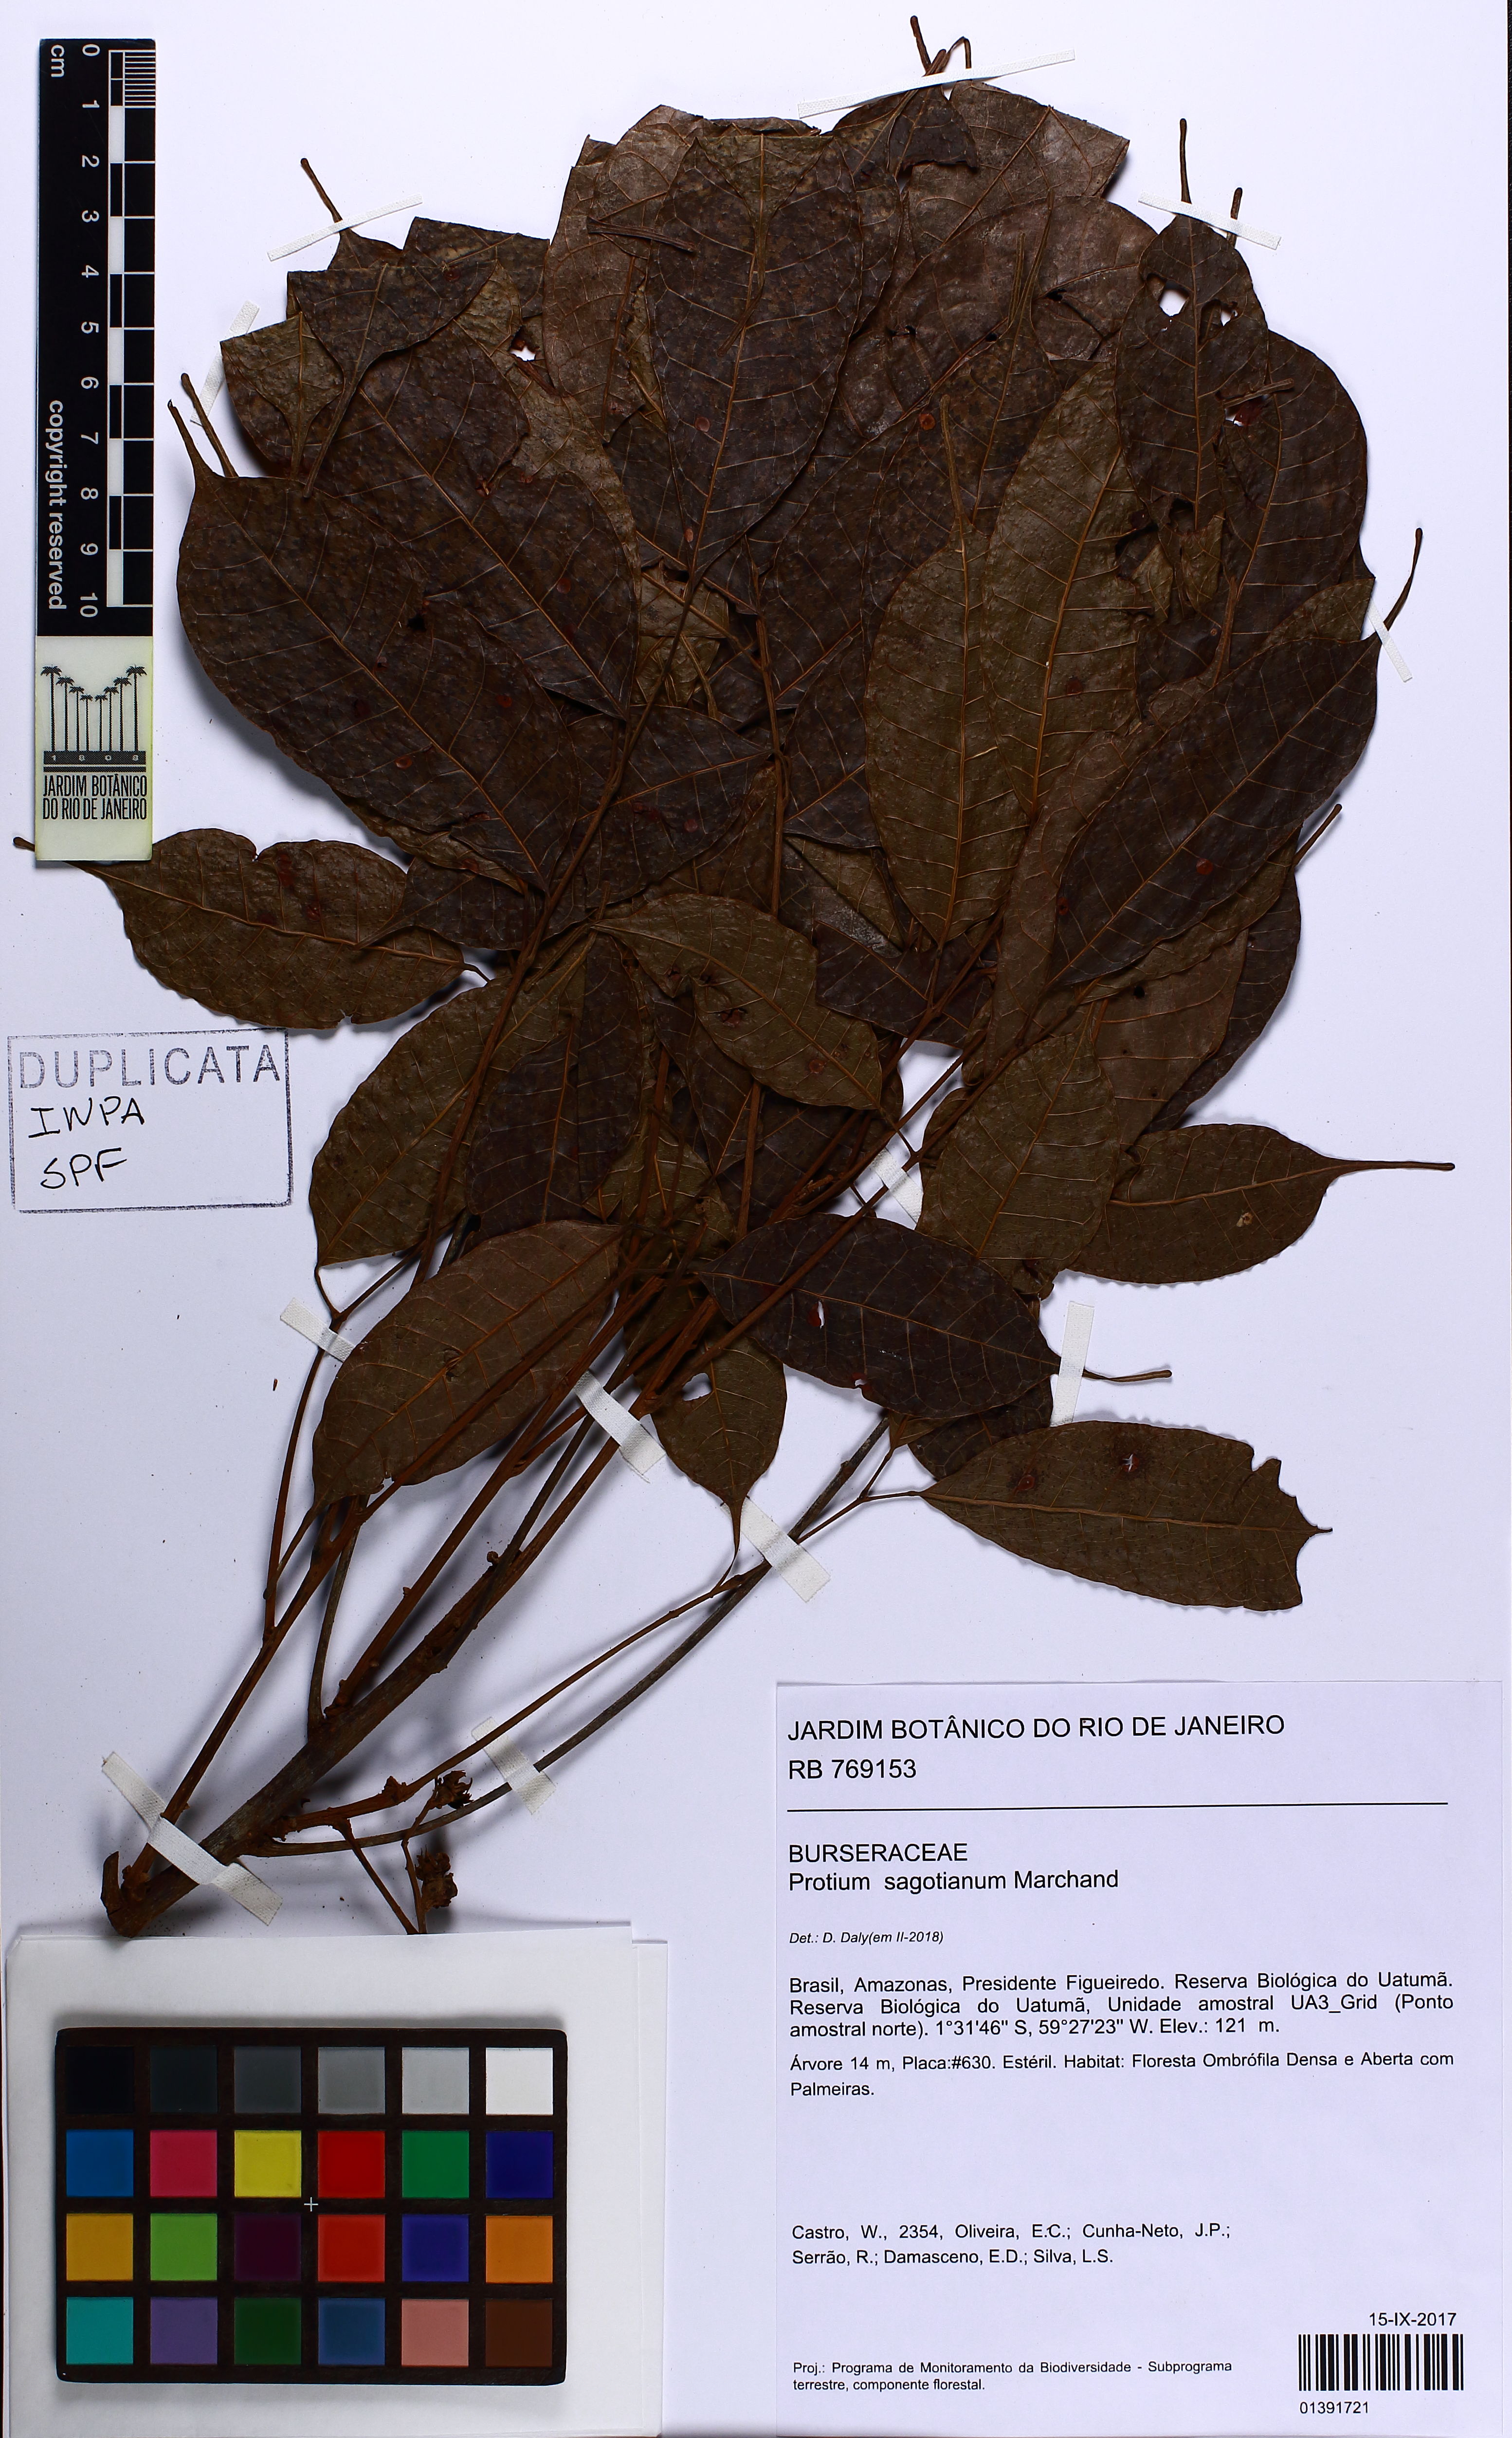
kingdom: Plantae
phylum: Tracheophyta
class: Magnoliopsida
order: Sapindales
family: Burseraceae
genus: Protium
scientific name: Protium sagotianum
